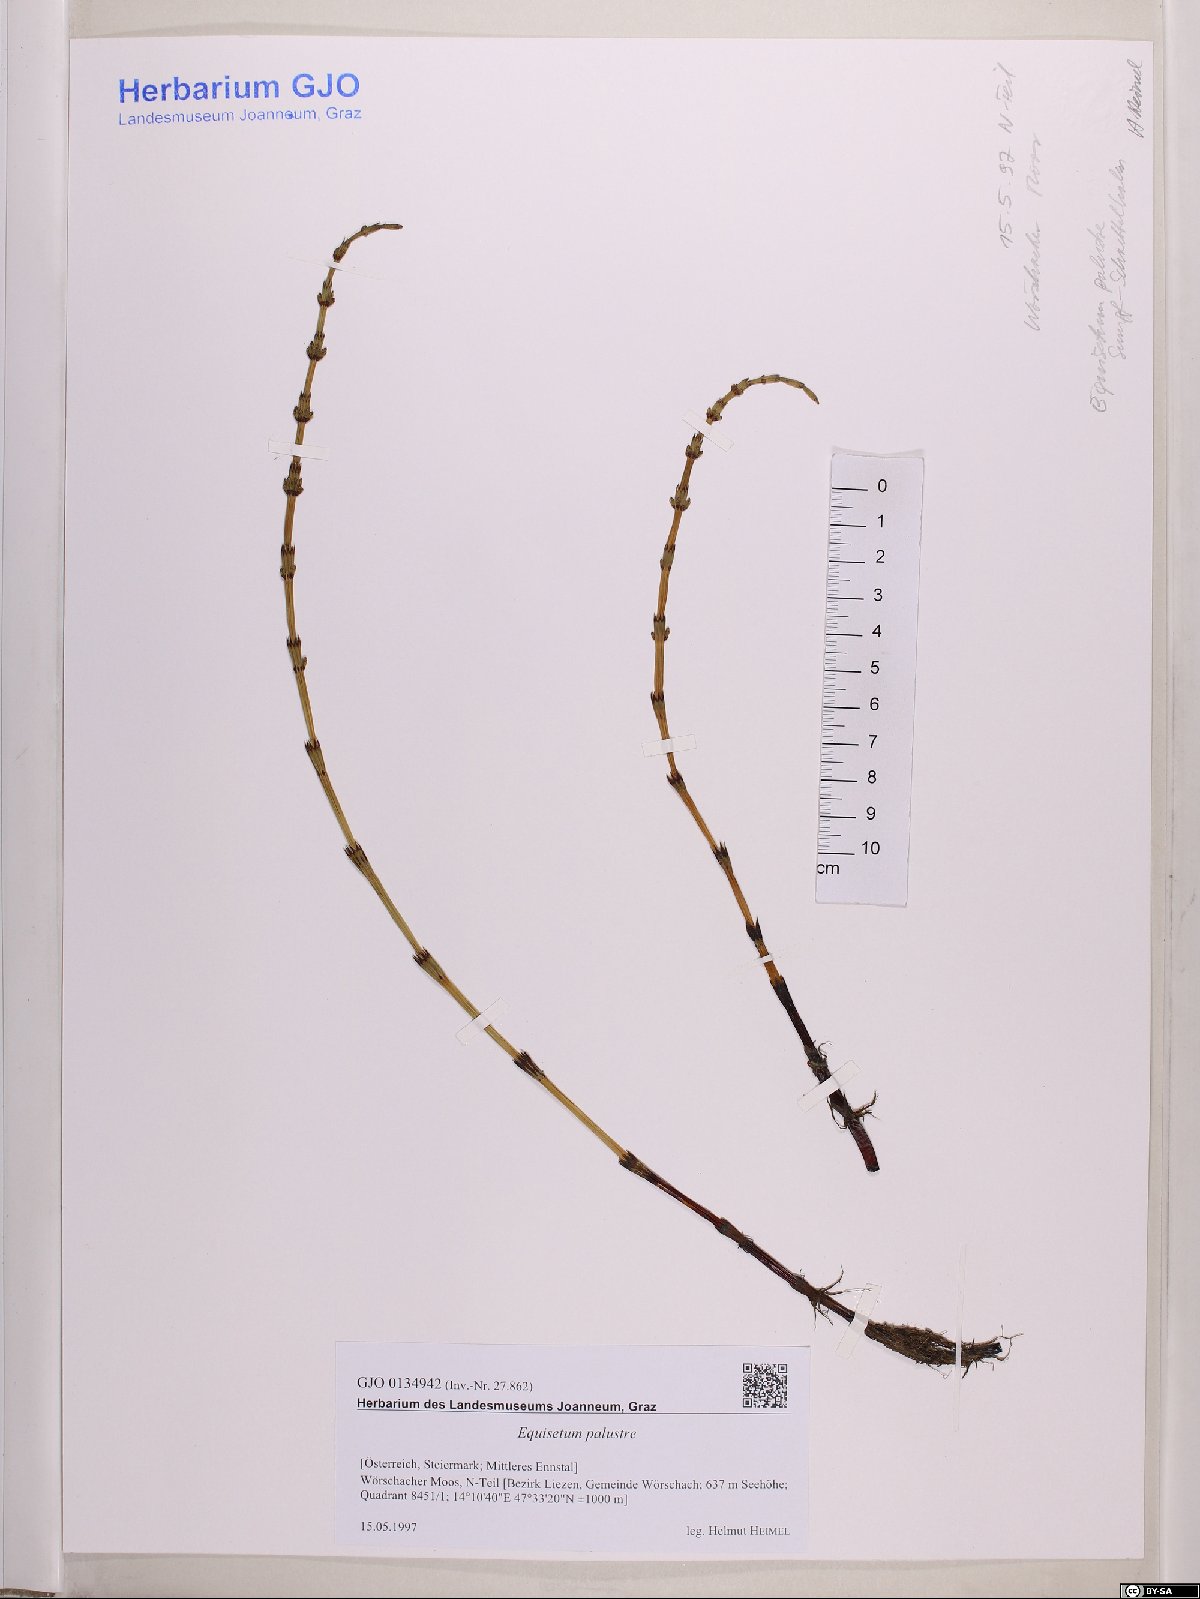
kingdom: Plantae
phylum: Tracheophyta
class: Polypodiopsida
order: Equisetales
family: Equisetaceae
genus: Equisetum
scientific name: Equisetum palustre
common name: Marsh horsetail
